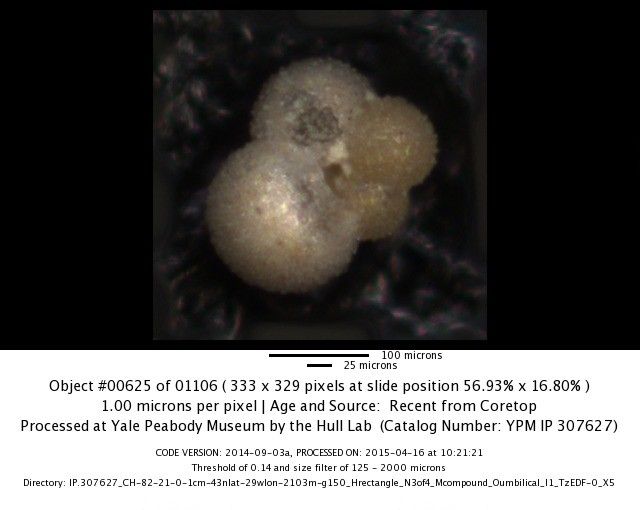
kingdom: Chromista
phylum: Foraminifera
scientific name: Foraminifera
